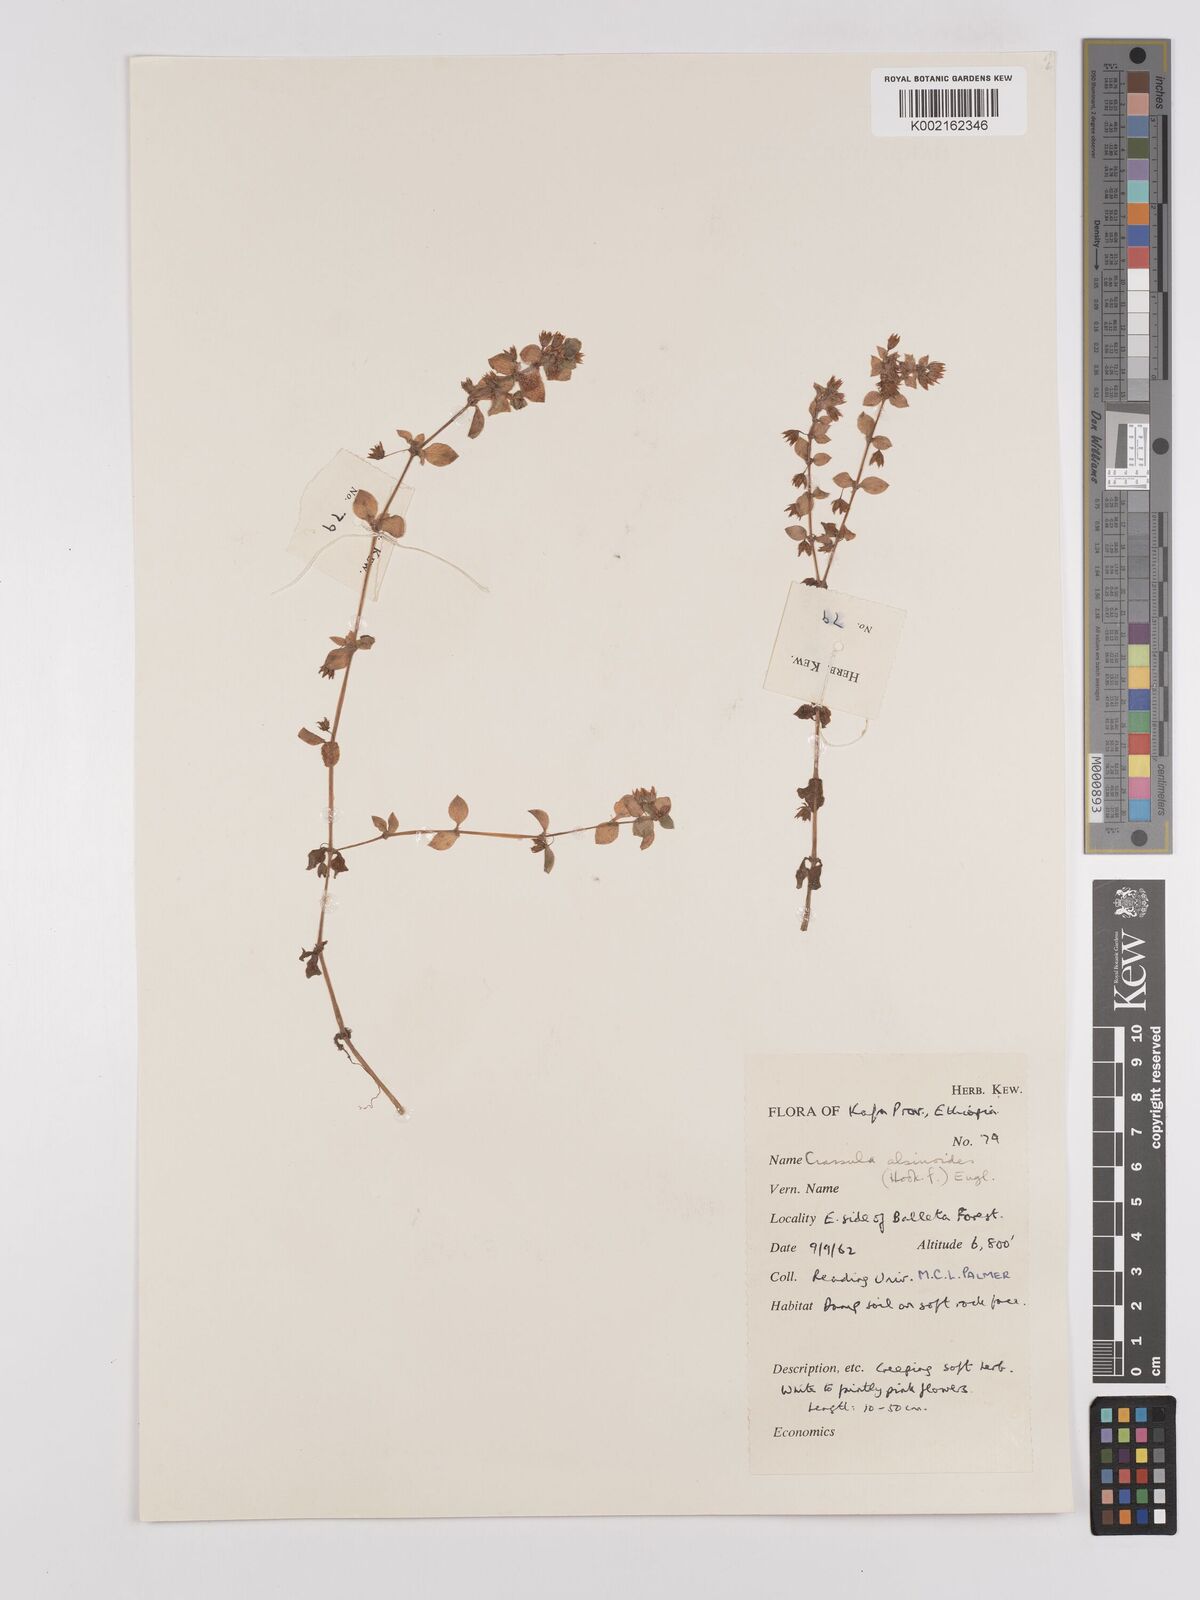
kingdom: Plantae
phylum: Tracheophyta
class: Magnoliopsida
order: Saxifragales
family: Crassulaceae
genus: Crassula
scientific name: Crassula alsinoides
